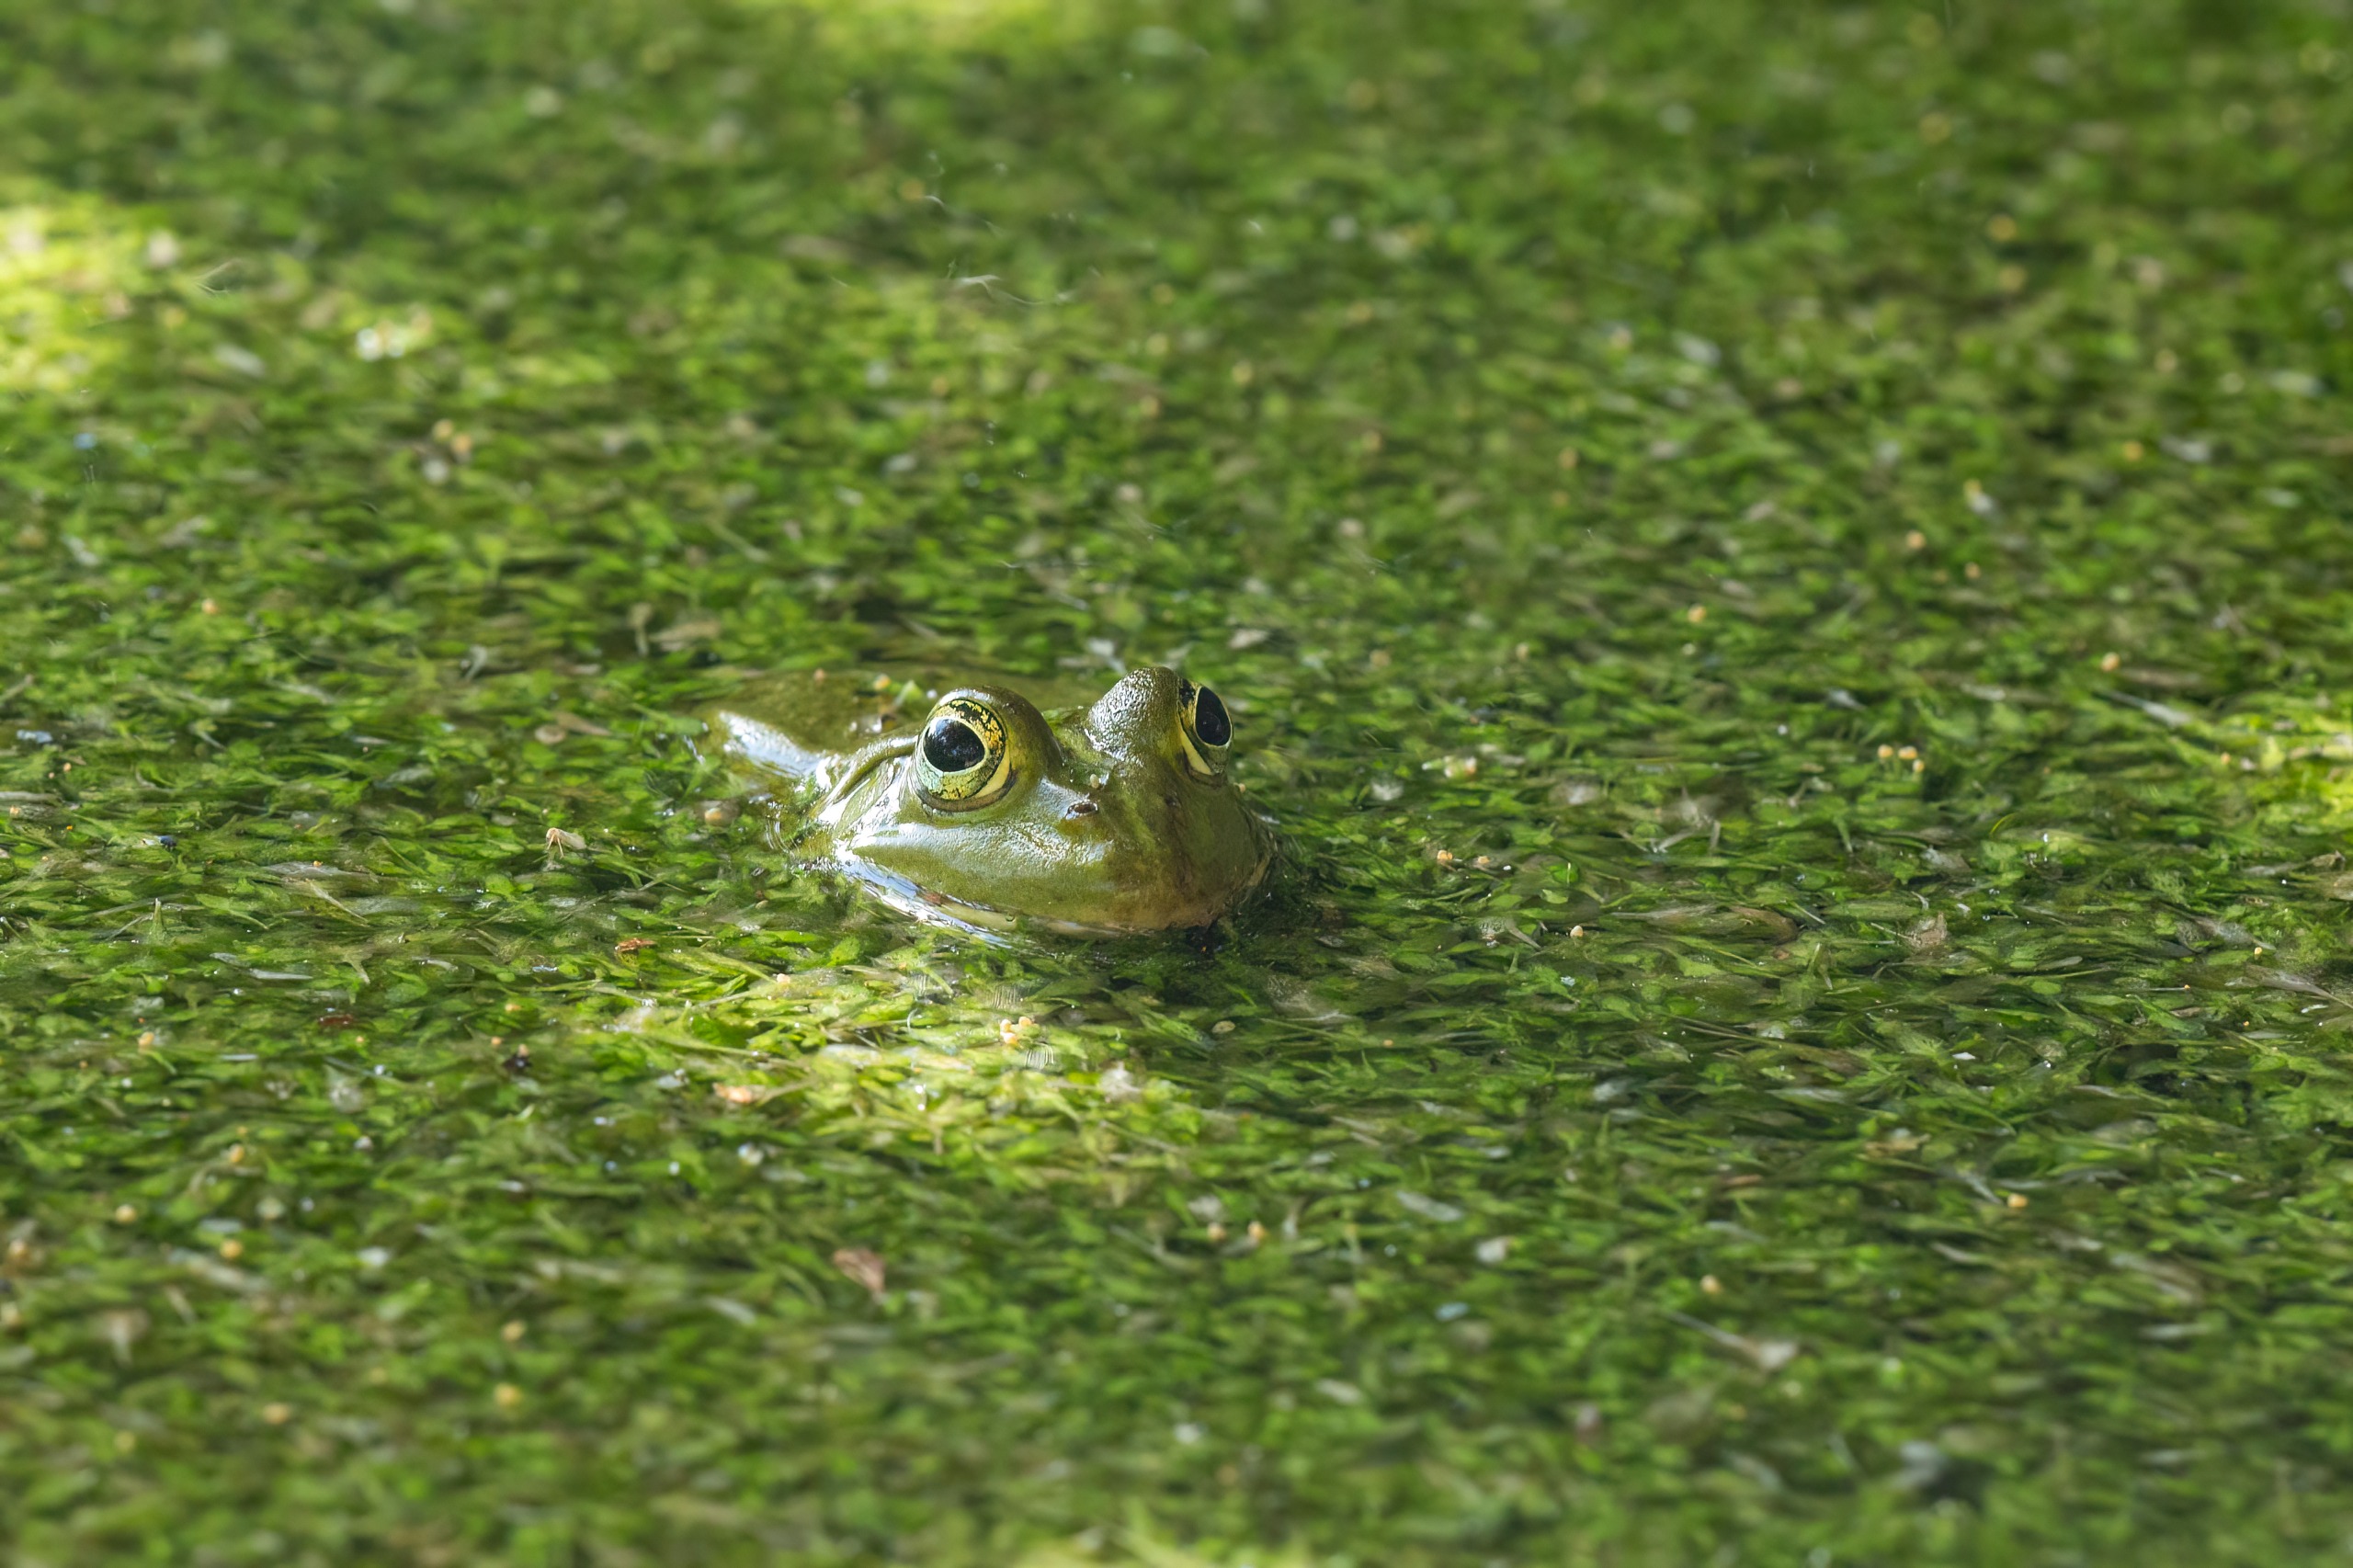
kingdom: Animalia
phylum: Chordata
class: Amphibia
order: Anura
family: Ranidae
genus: Pelophylax
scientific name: Pelophylax lessonae
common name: Grøn frø
